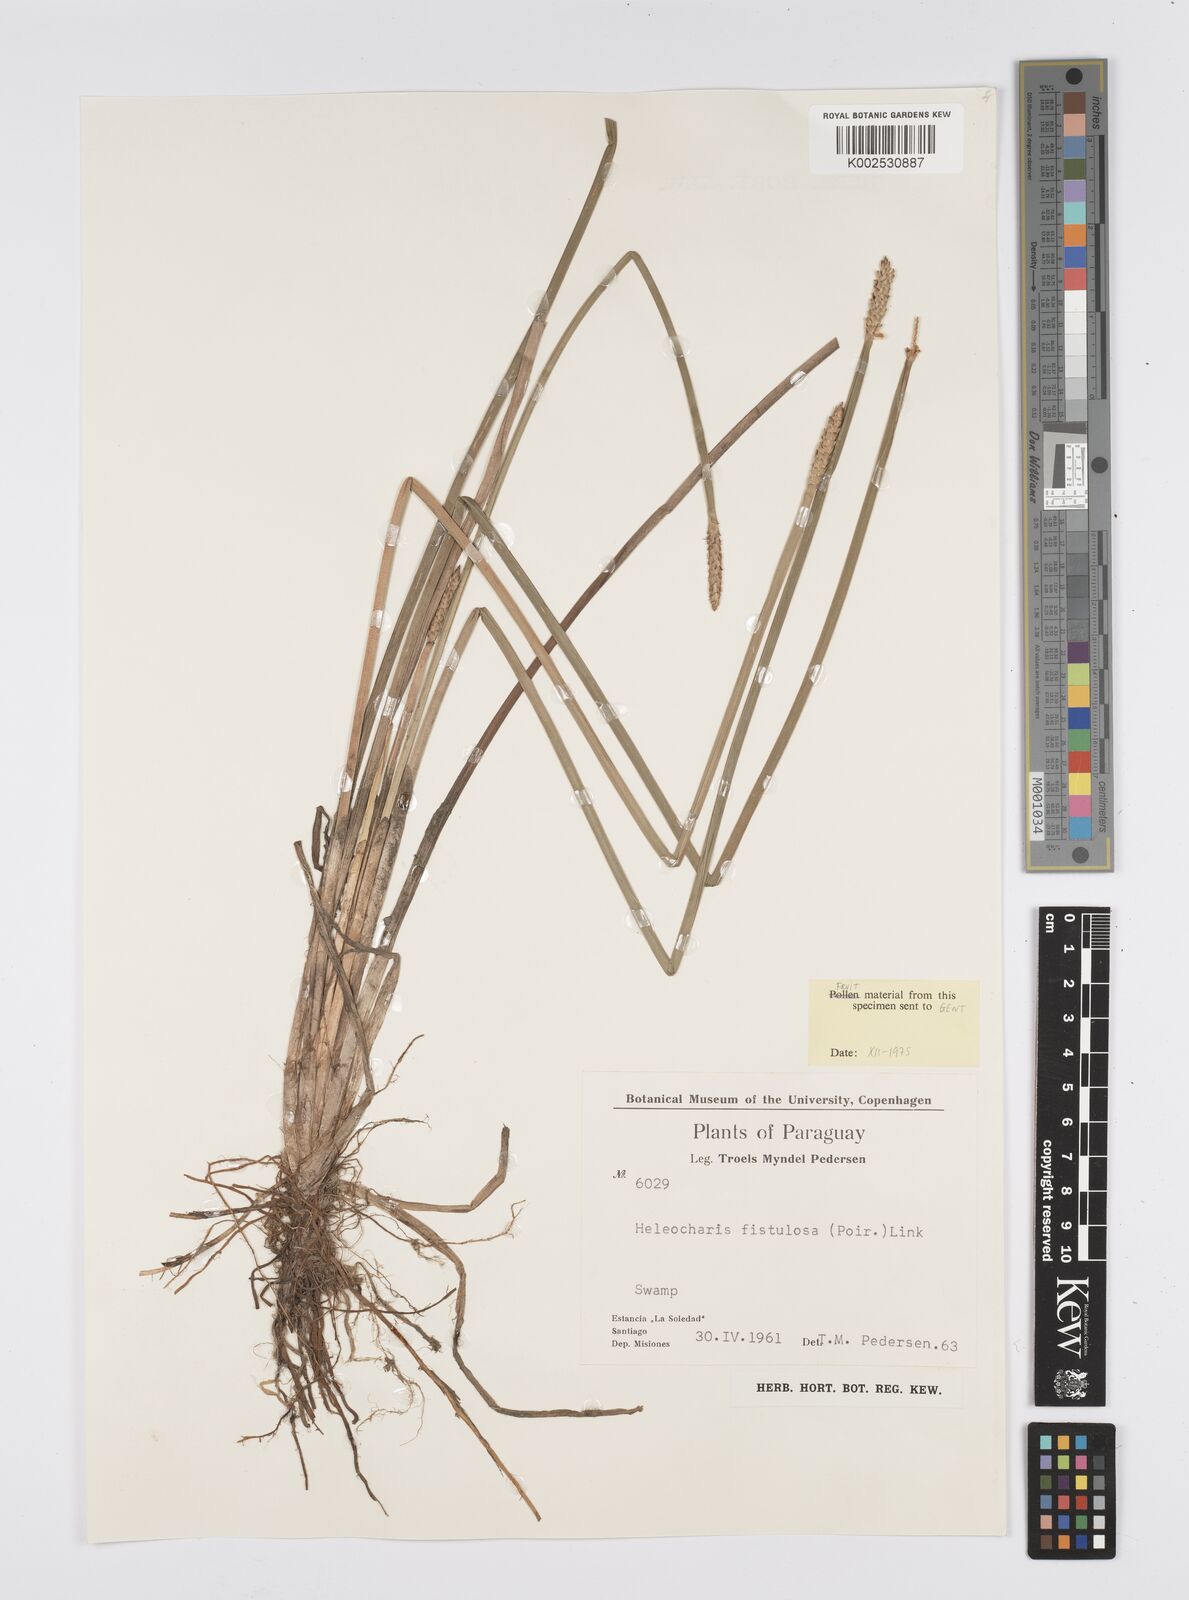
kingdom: Plantae
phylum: Tracheophyta
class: Liliopsida
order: Poales
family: Cyperaceae
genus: Eleocharis
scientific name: Eleocharis acutangula
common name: Acute spikerush
